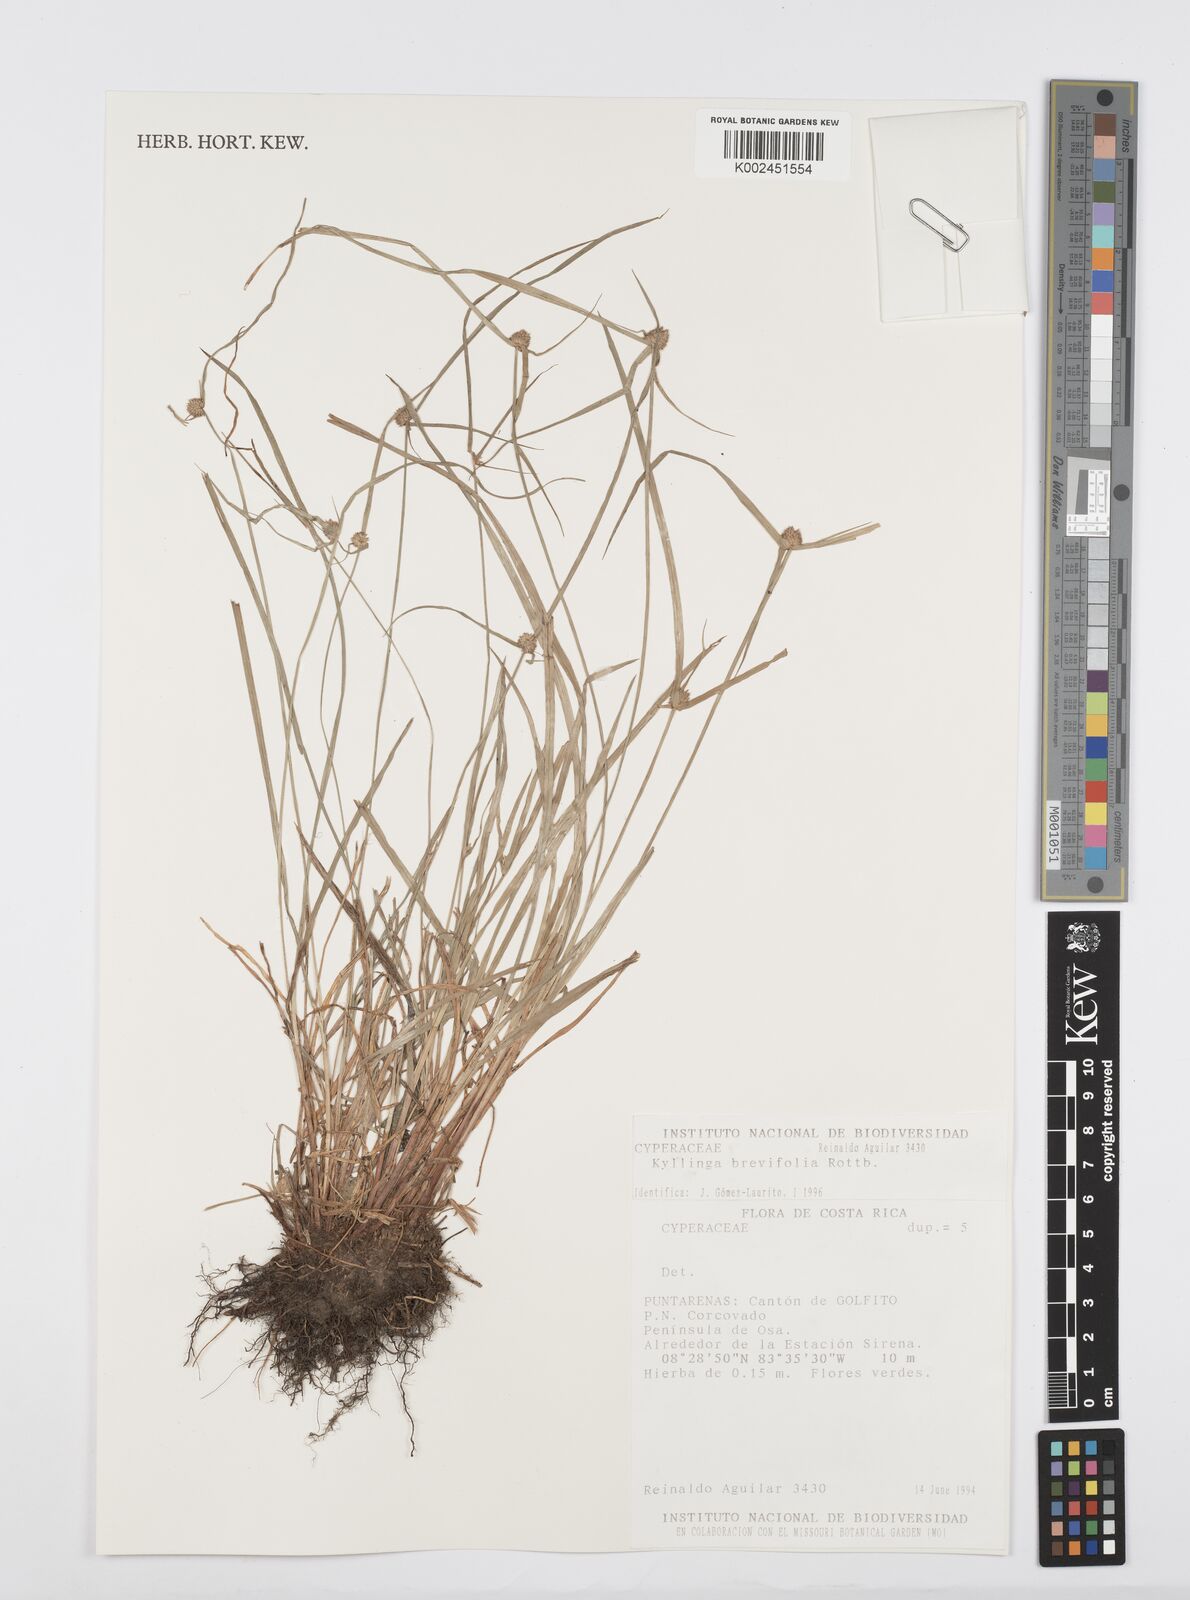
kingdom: Plantae
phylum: Tracheophyta
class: Liliopsida
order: Poales
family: Cyperaceae
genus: Cyperus
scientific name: Cyperus nudiceps
